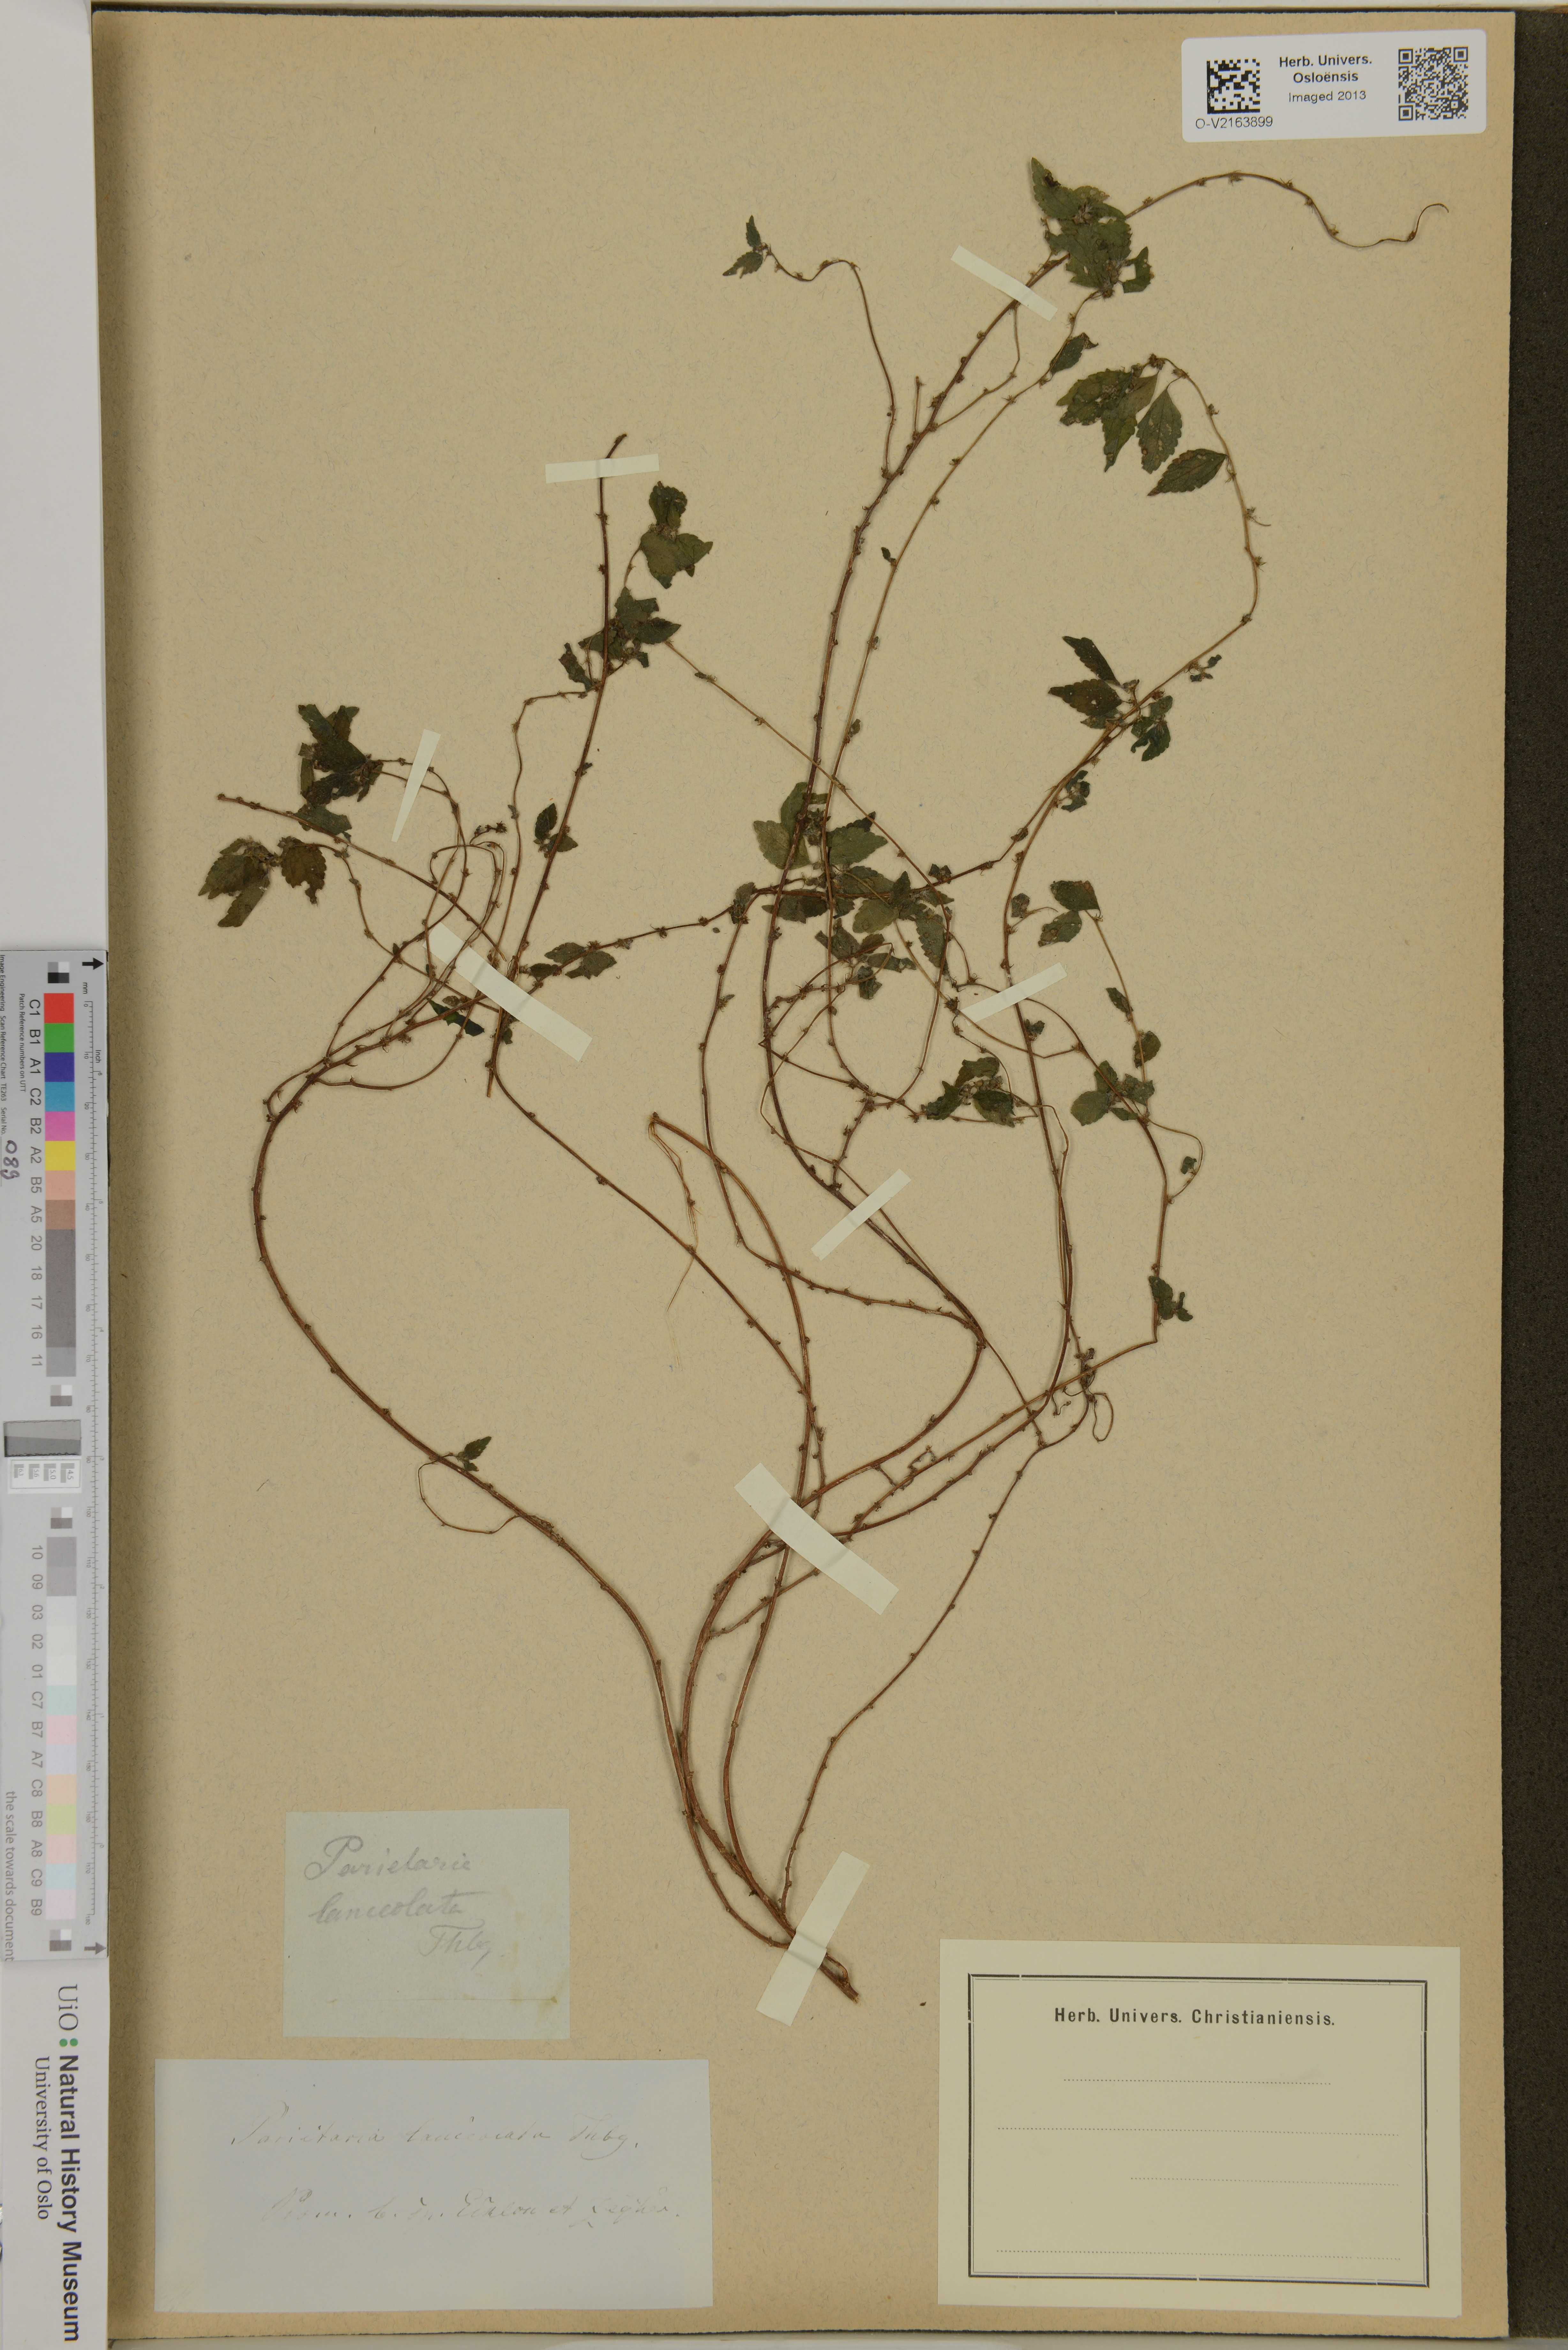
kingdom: Plantae
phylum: Tracheophyta
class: Magnoliopsida
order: Rosales
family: Urticaceae
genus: Pouzolzia
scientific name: Pouzolzia zeylanica
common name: Graceful pouzolzsbush
